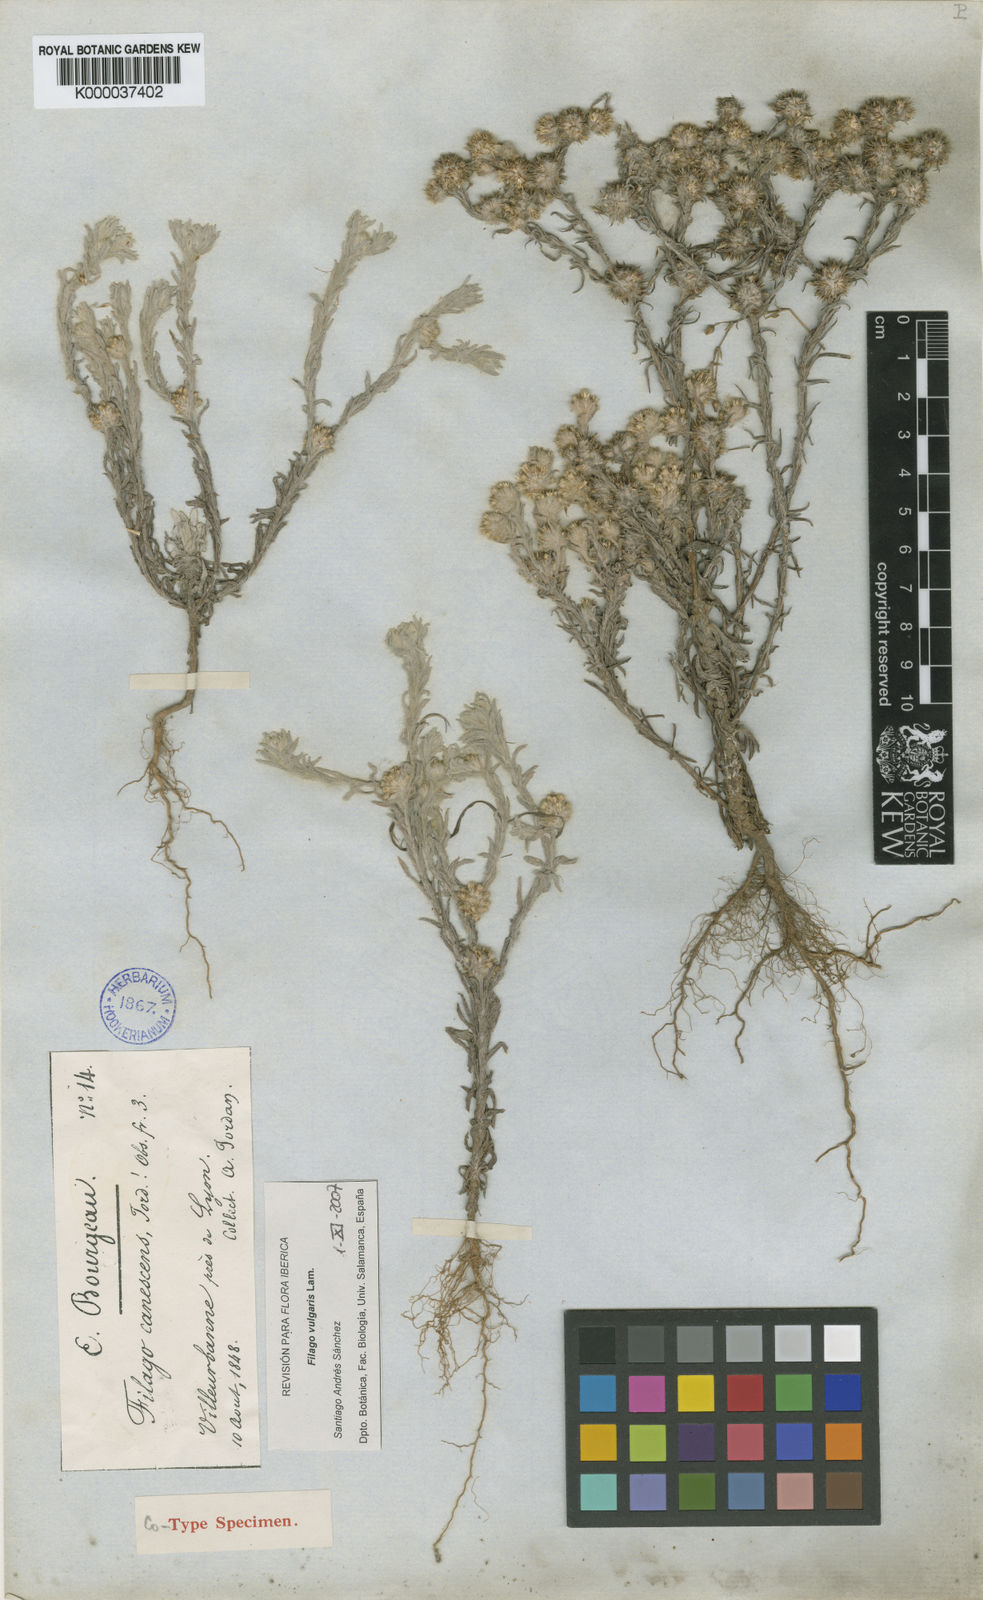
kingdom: Plantae
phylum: Tracheophyta
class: Magnoliopsida
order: Asterales
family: Asteraceae
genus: Filago
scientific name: Filago germanica
